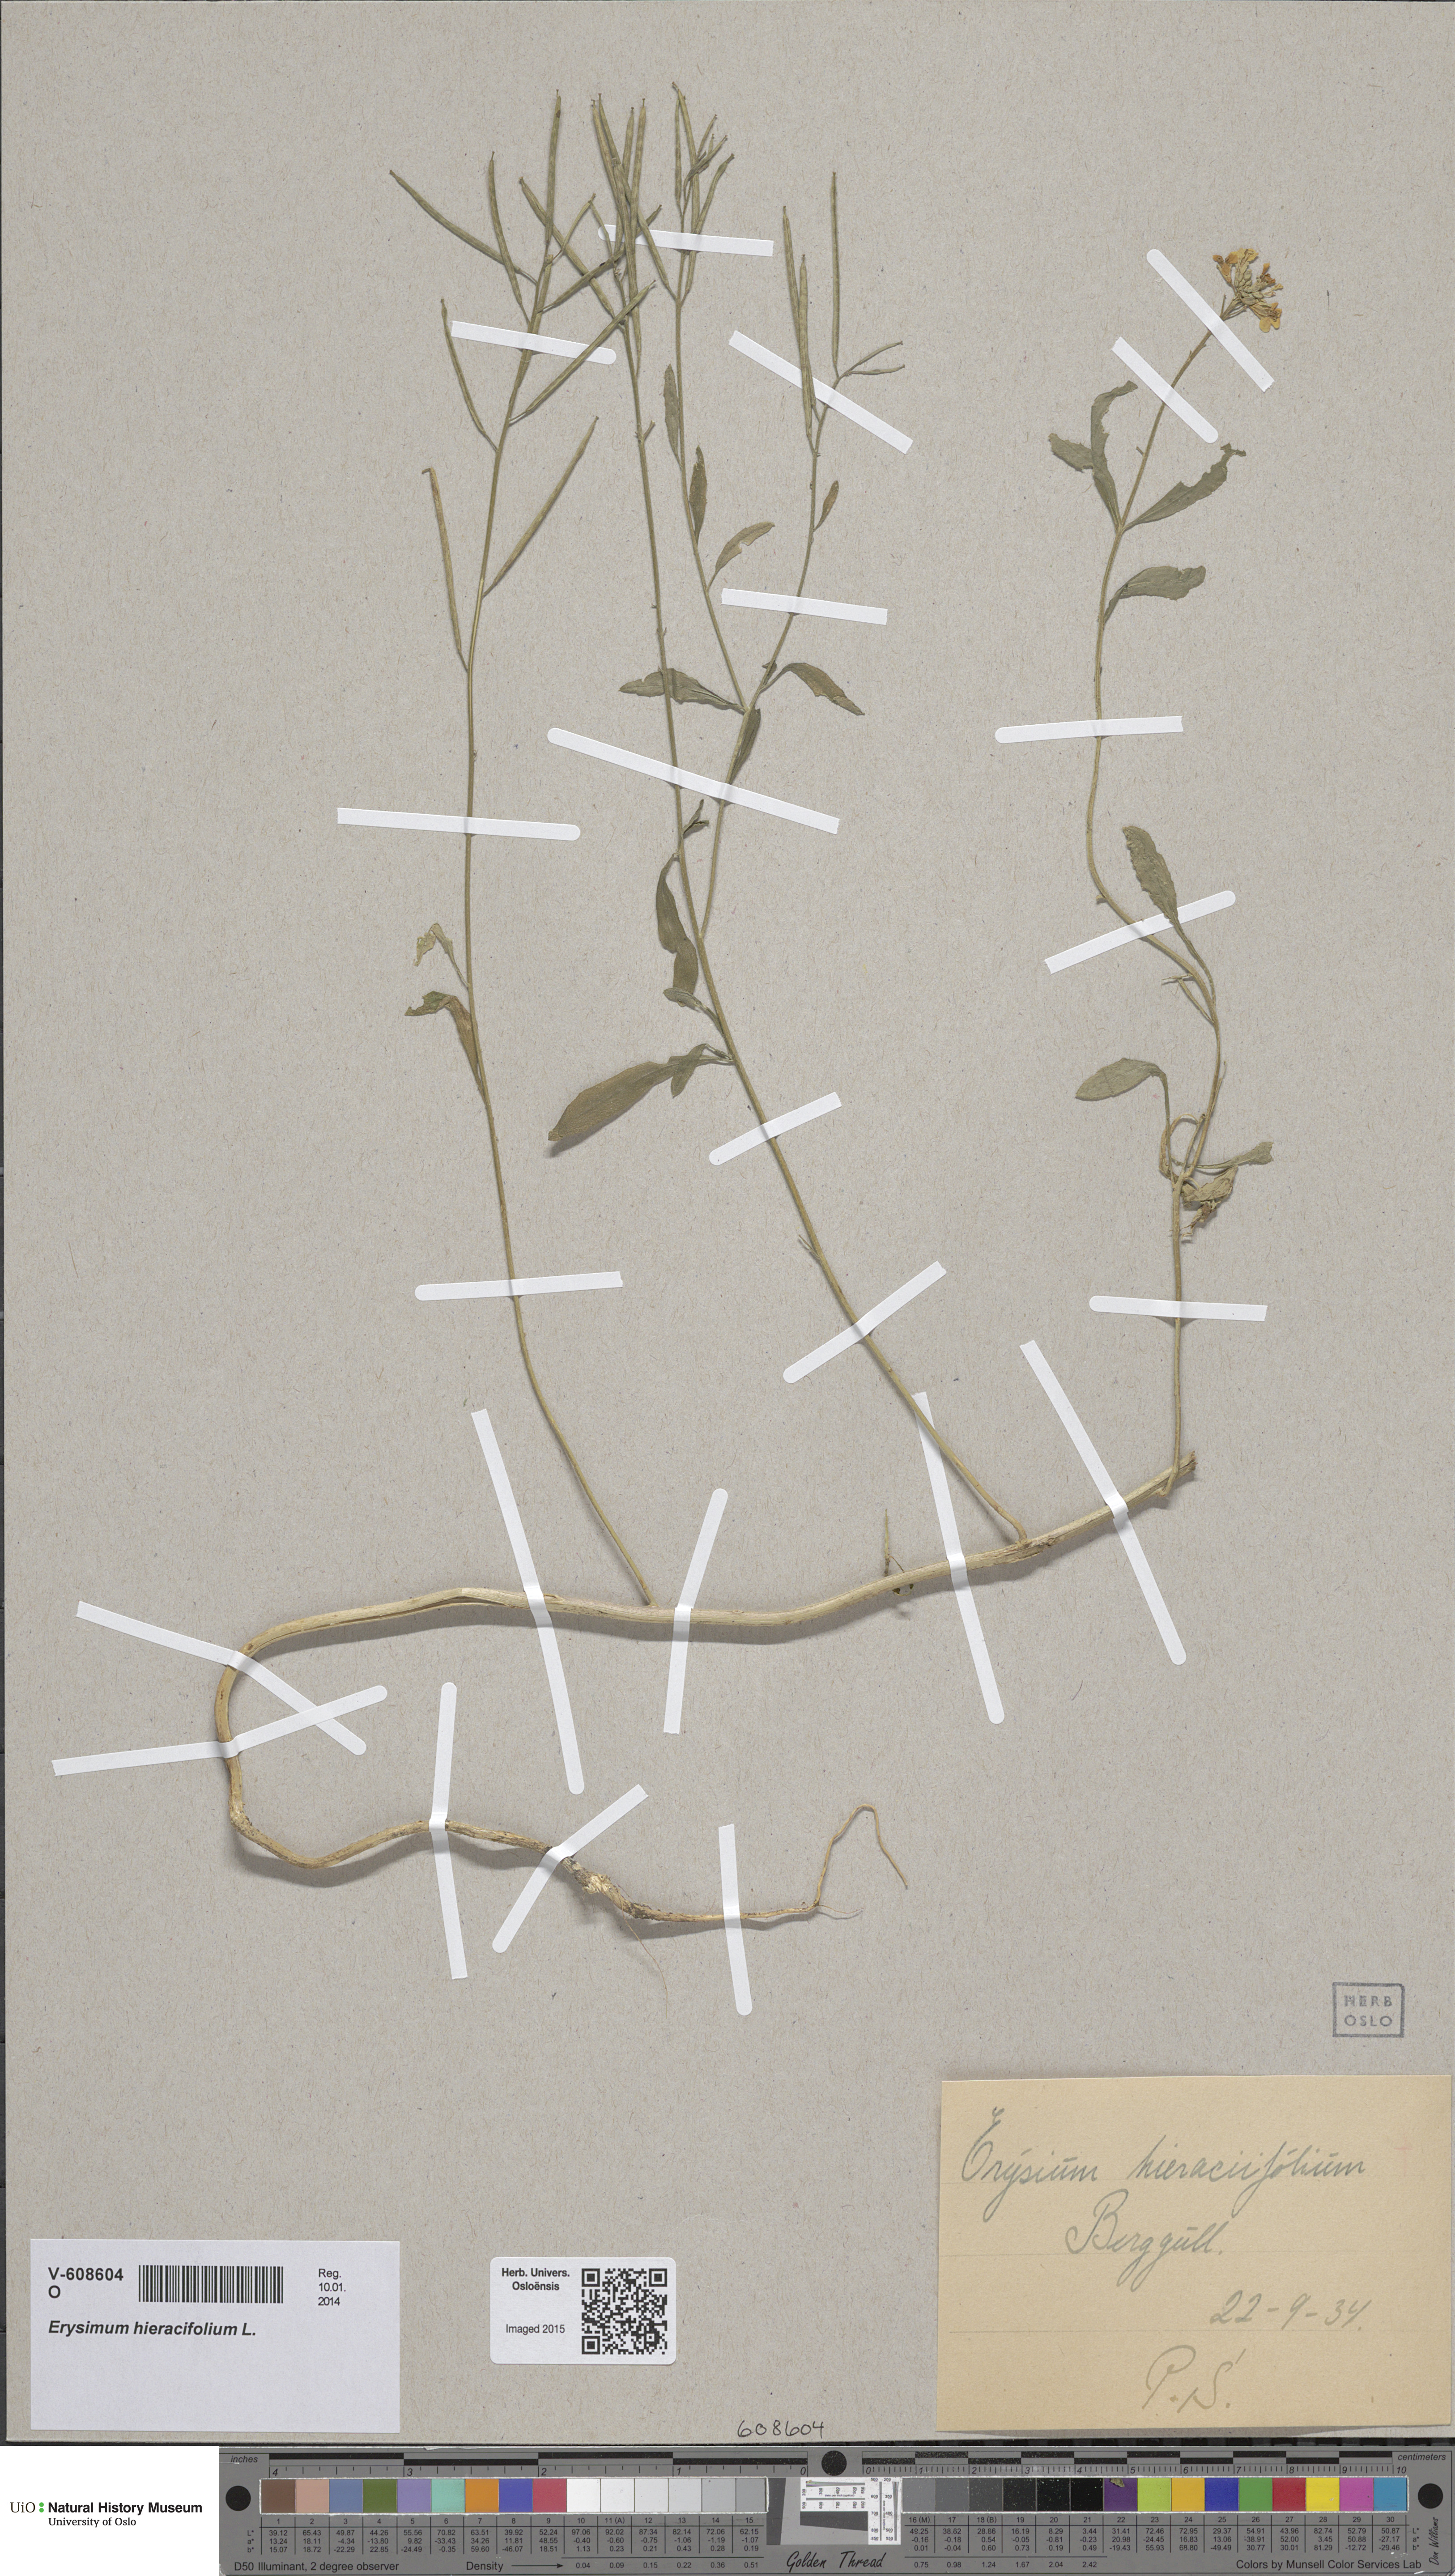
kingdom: Plantae
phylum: Tracheophyta
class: Magnoliopsida
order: Brassicales
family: Brassicaceae
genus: Erysimum
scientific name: Erysimum cheiranthoides
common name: Treacle mustard
